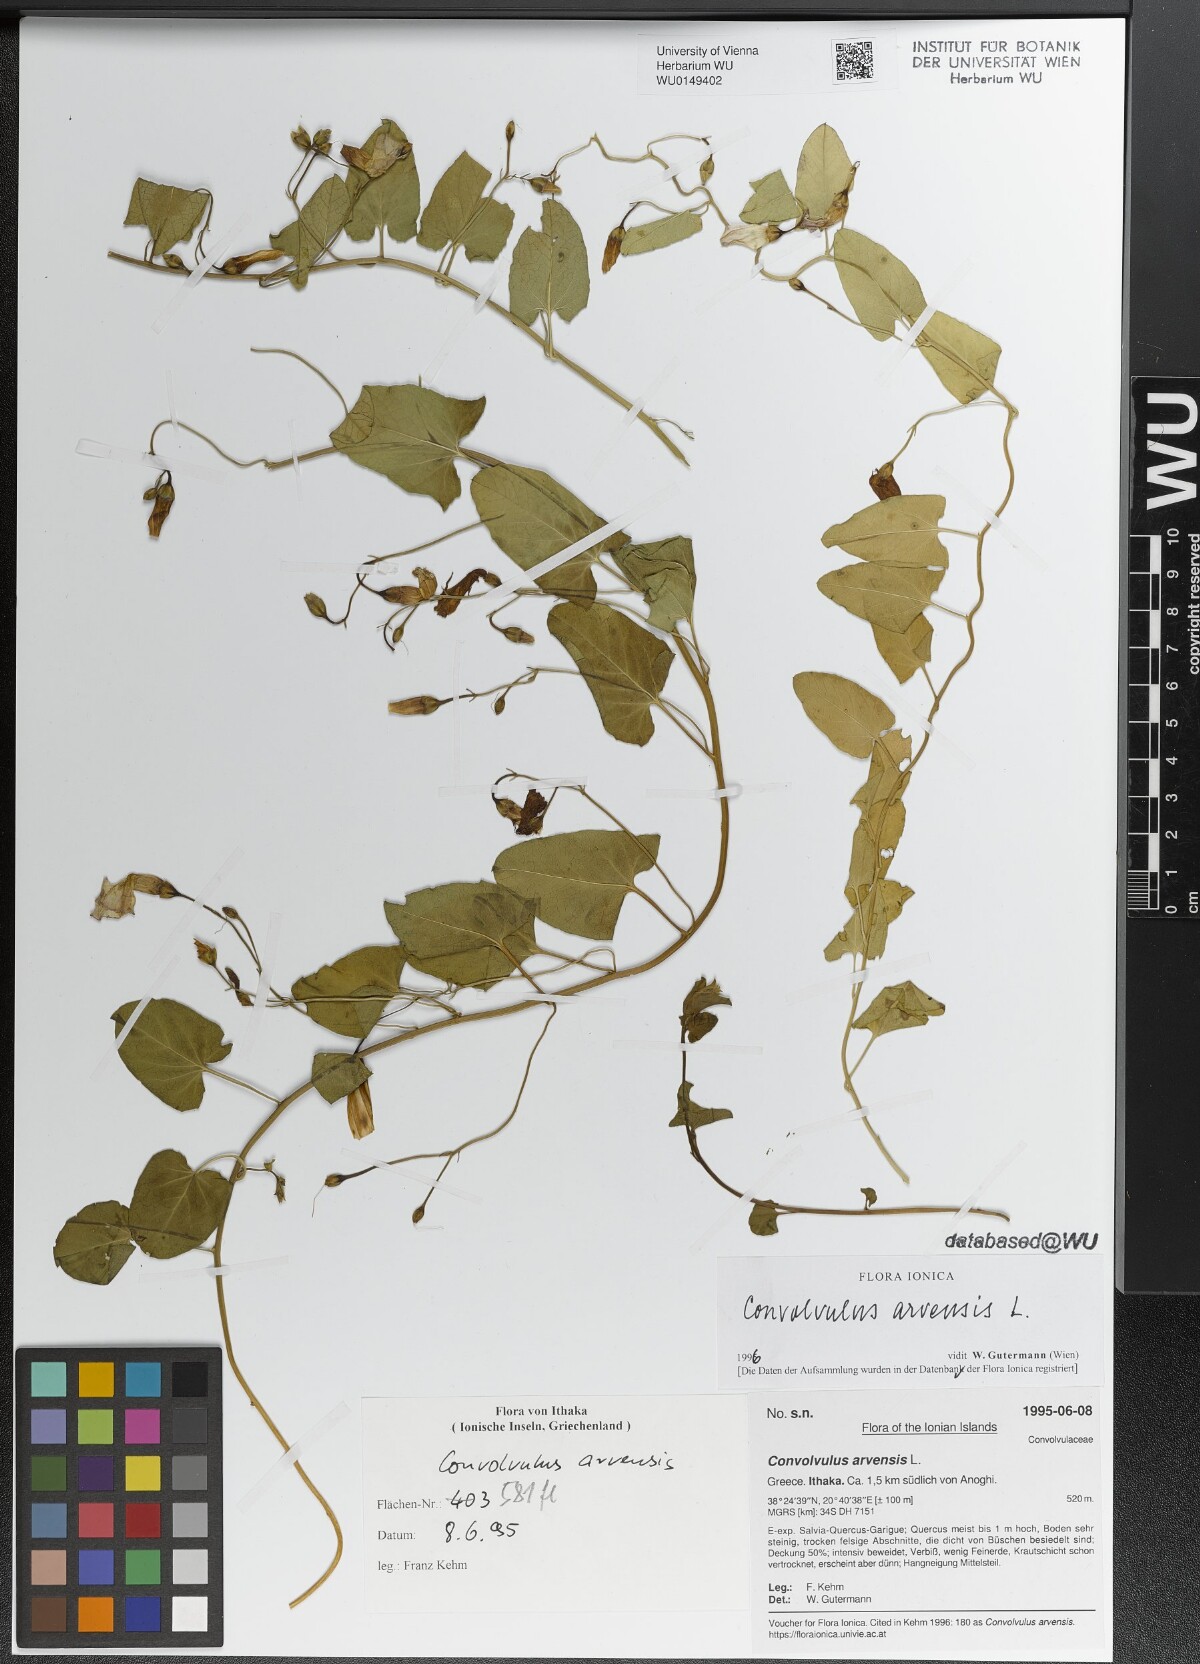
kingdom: Plantae
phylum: Tracheophyta
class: Magnoliopsida
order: Solanales
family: Convolvulaceae
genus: Convolvulus
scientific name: Convolvulus arvensis
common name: Field bindweed
